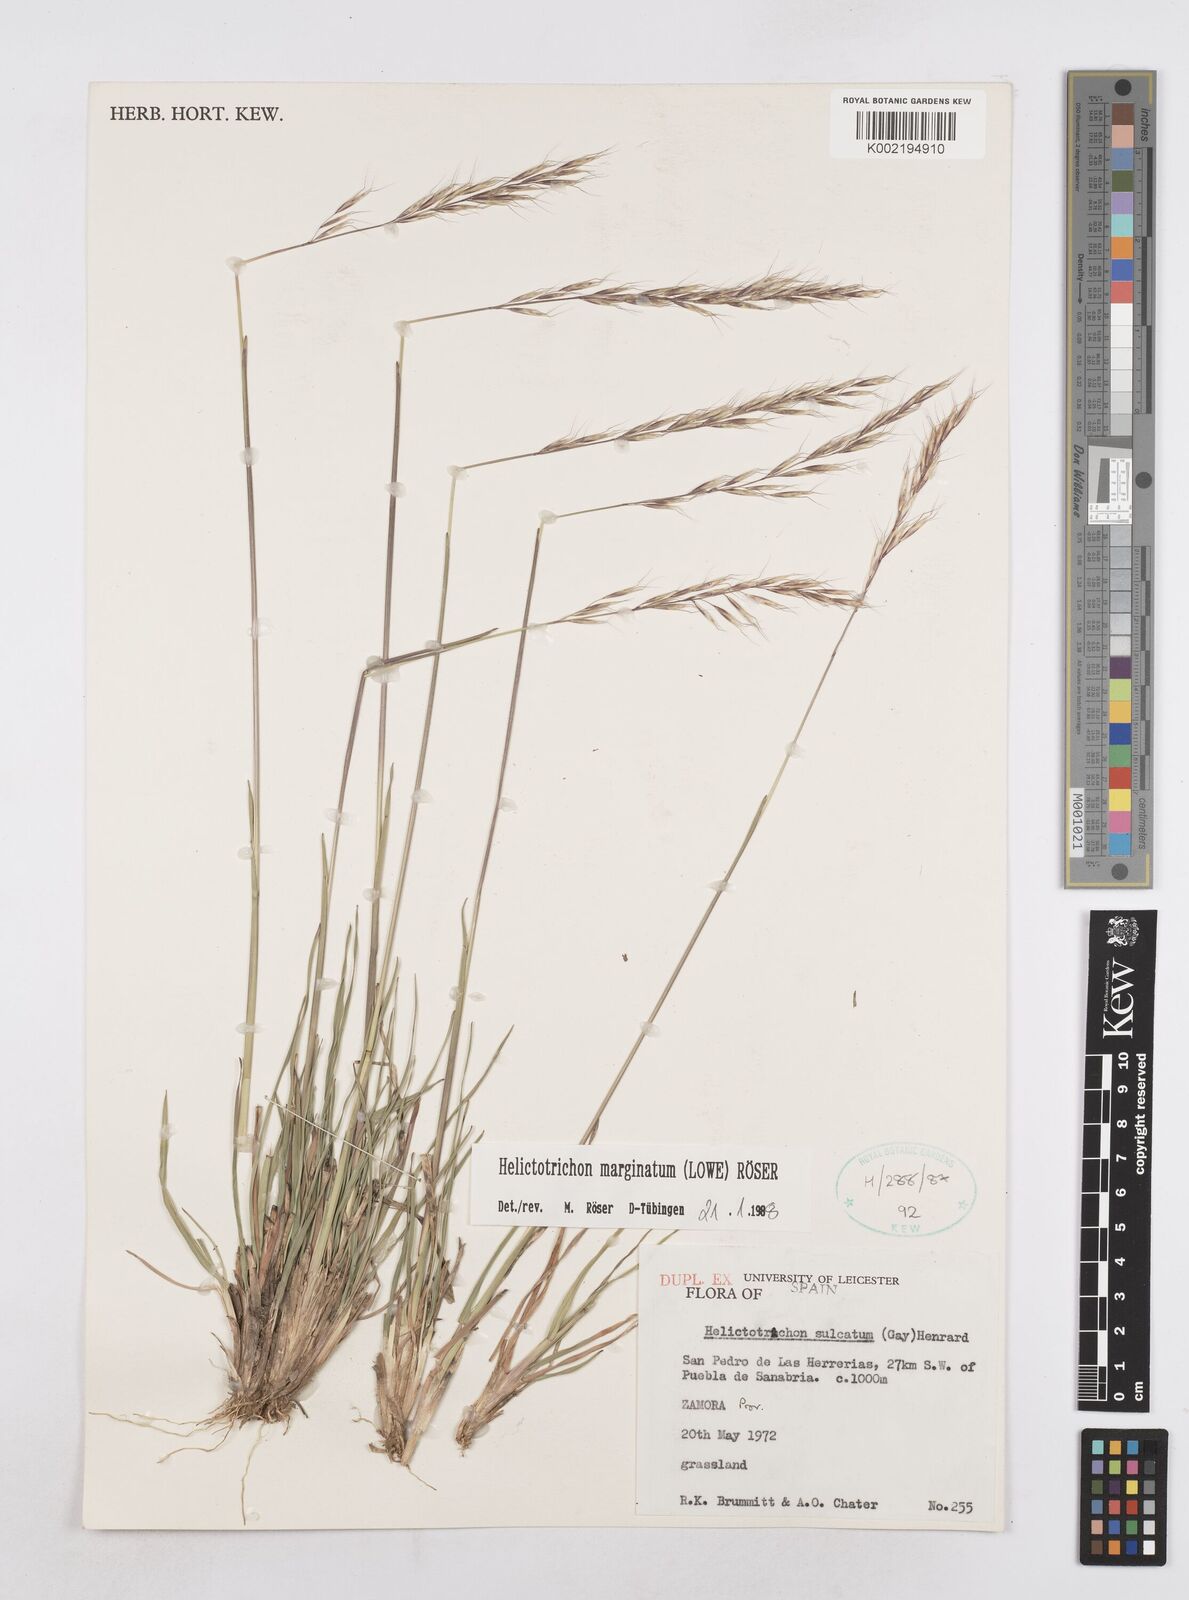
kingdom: Plantae
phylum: Tracheophyta
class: Liliopsida
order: Poales
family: Poaceae
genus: Helictotrichon
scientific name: Helictotrichon
